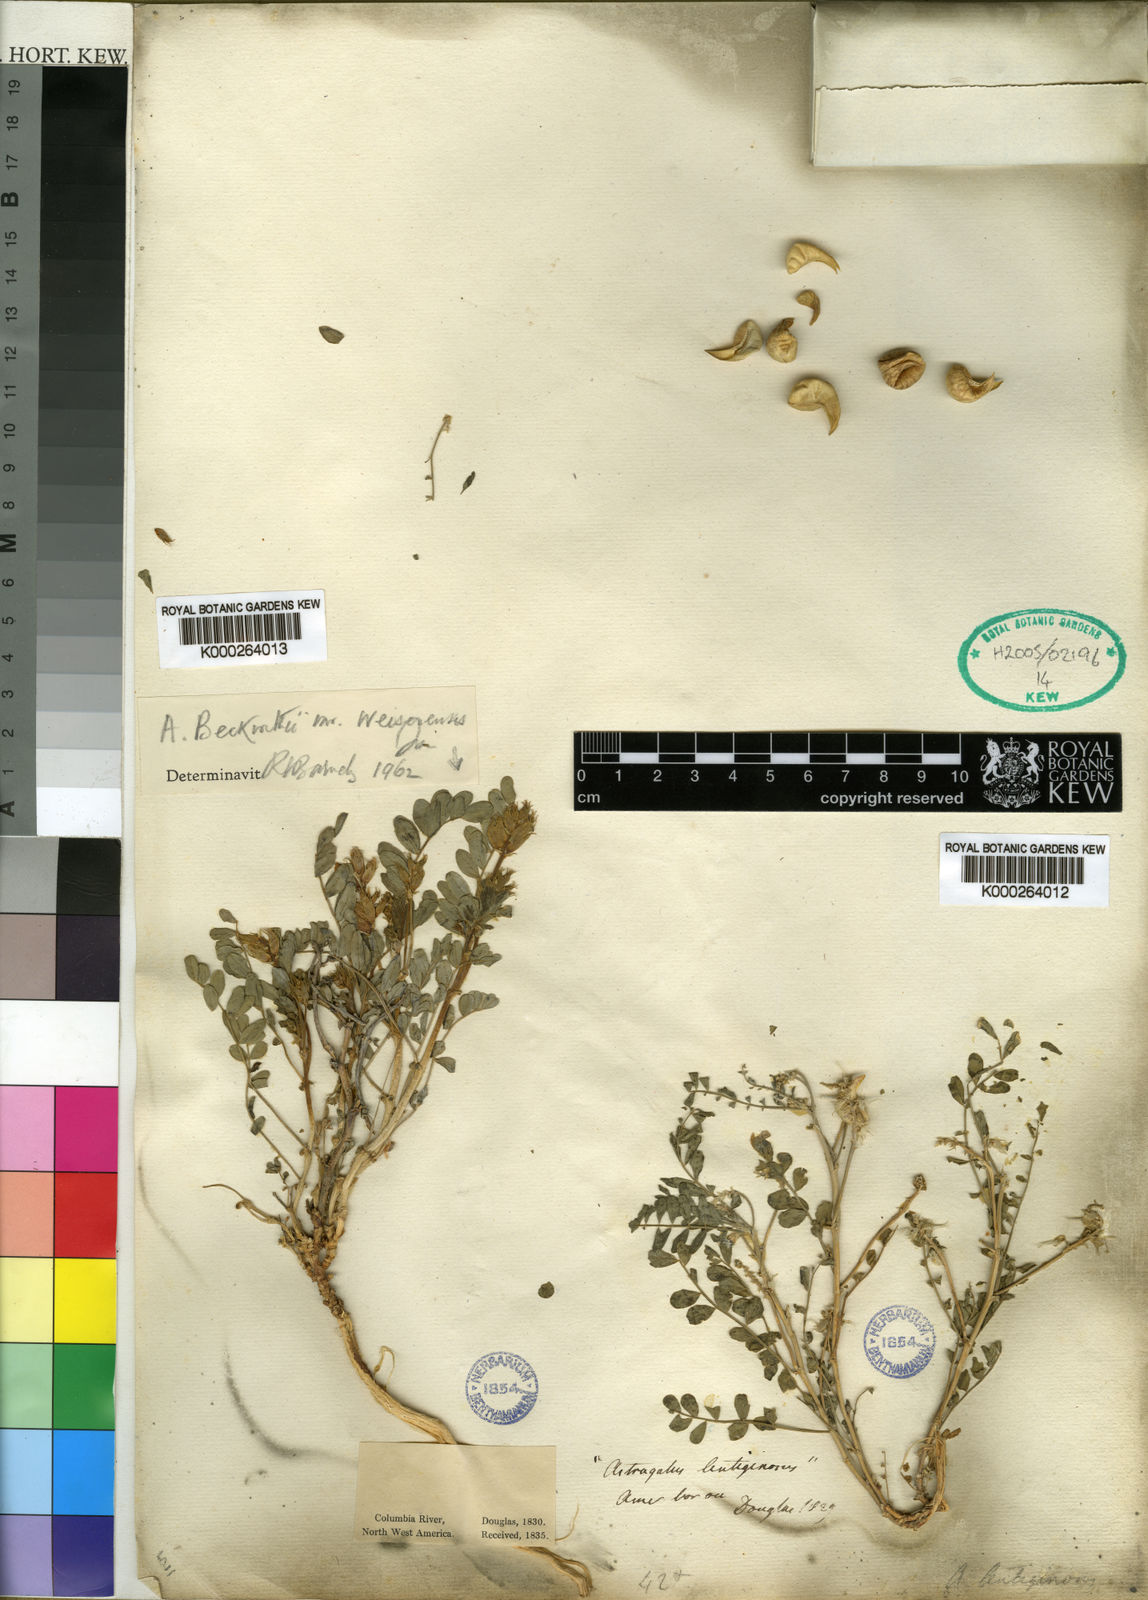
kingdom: Plantae
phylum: Tracheophyta
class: Magnoliopsida
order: Fabales
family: Fabaceae
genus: Astragalus
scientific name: Astragalus lentiginosus
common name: Freckled milkvetch
